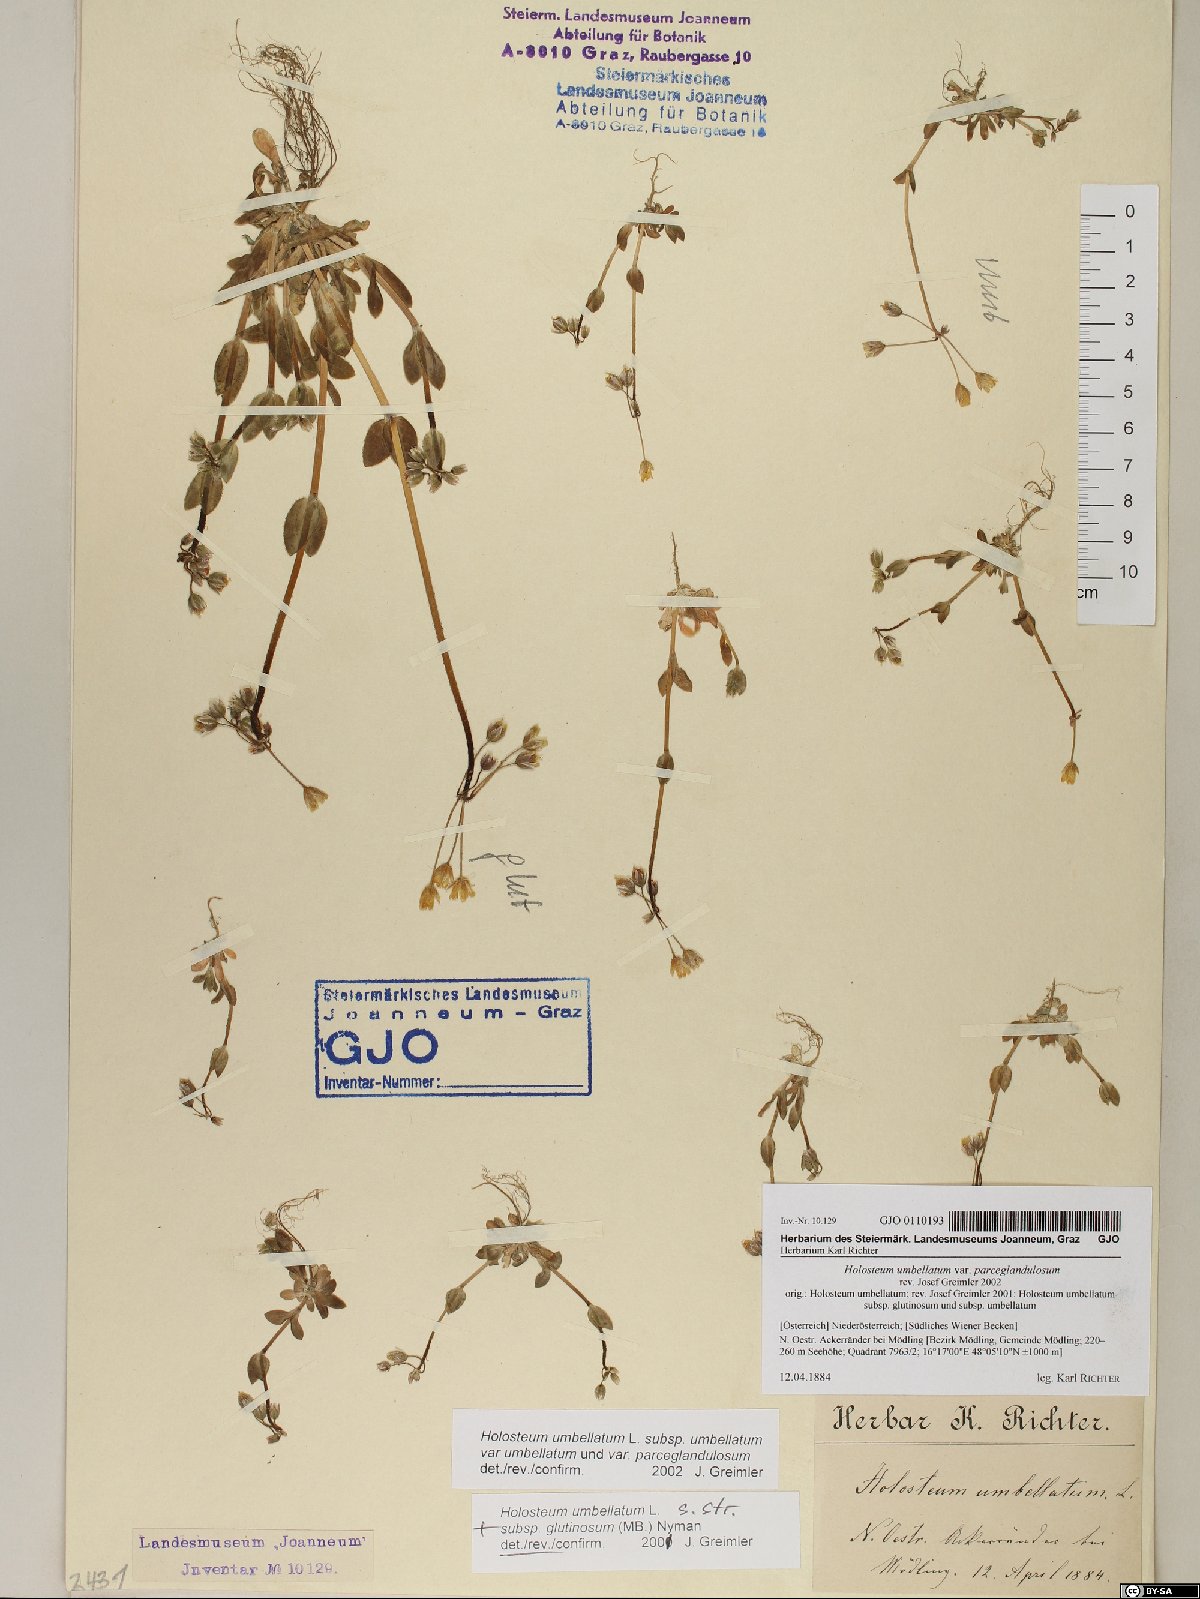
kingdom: Plantae
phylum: Tracheophyta
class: Magnoliopsida
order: Caryophyllales
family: Caryophyllaceae
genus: Holosteum
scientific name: Holosteum umbellatum
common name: Jagged chickweed
